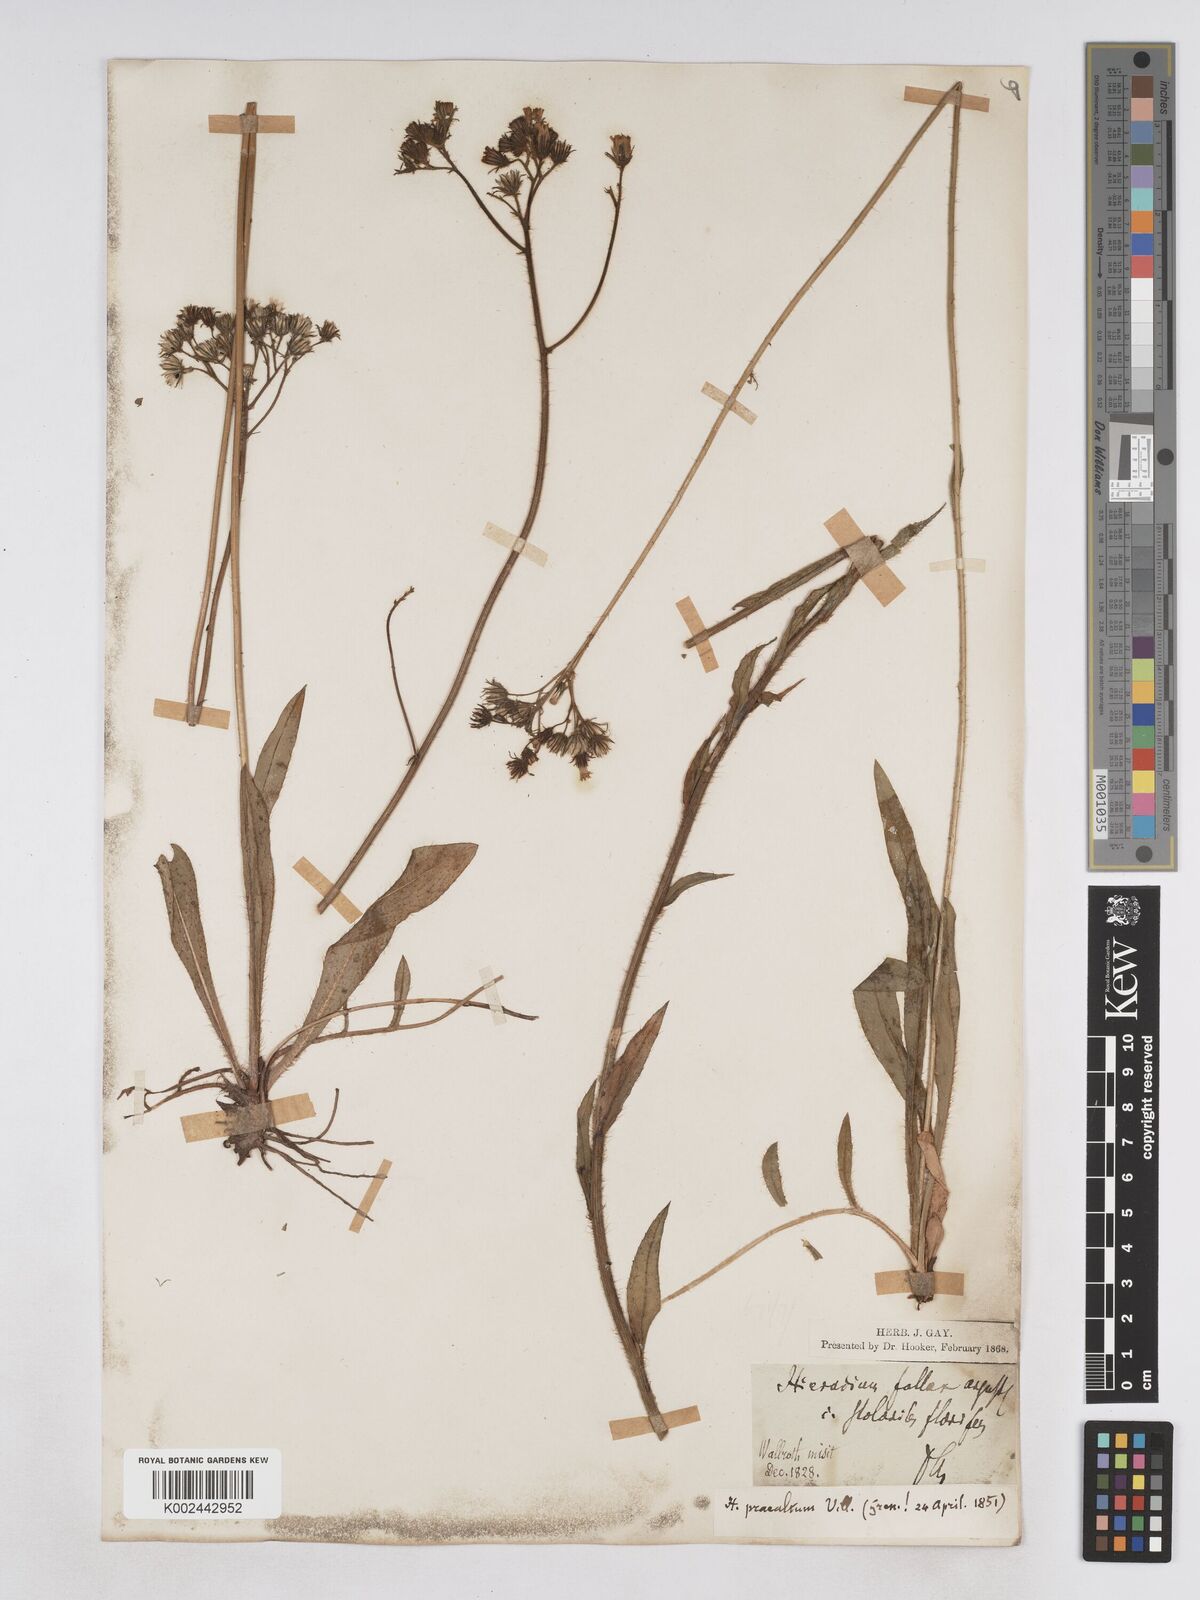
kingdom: Plantae
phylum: Tracheophyta
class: Magnoliopsida
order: Asterales
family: Asteraceae
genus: Pilosella
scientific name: Pilosella piloselloides
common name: Glaucous king-devil
